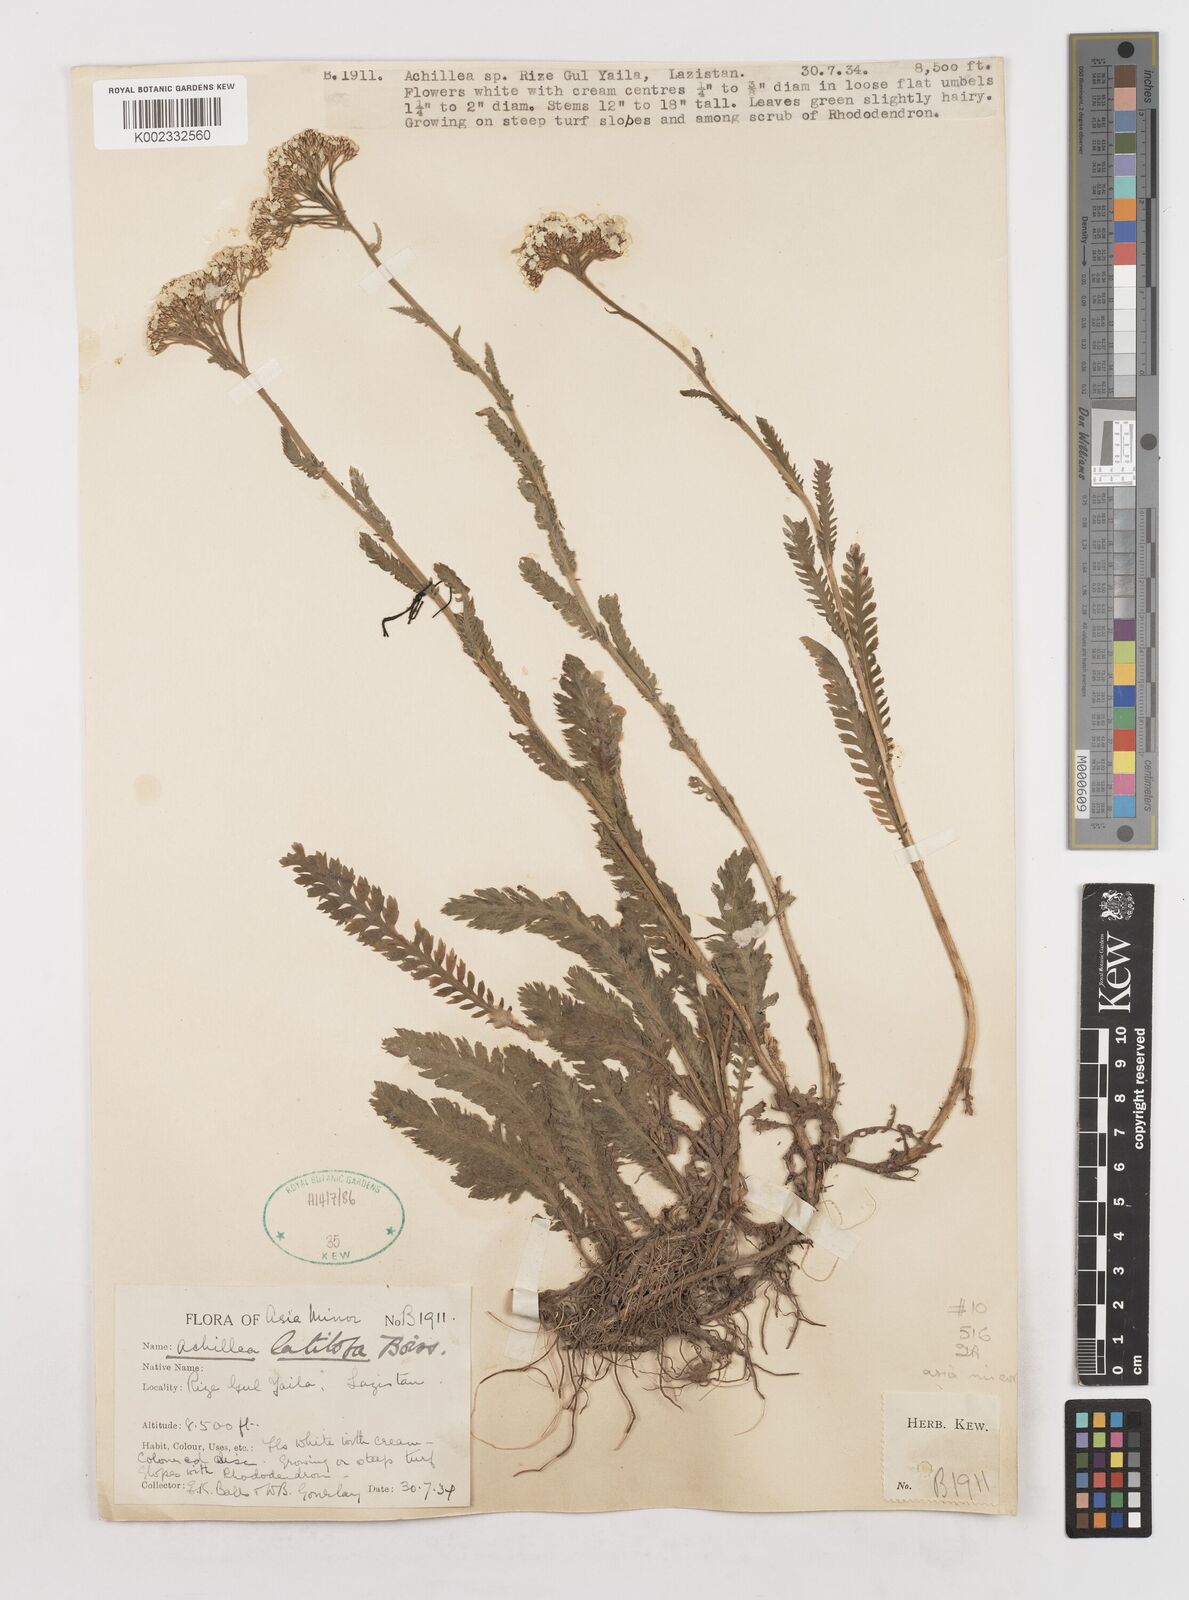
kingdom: Plantae
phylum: Tracheophyta
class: Magnoliopsida
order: Asterales
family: Asteraceae
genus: Achillea
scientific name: Achillea latiloba
